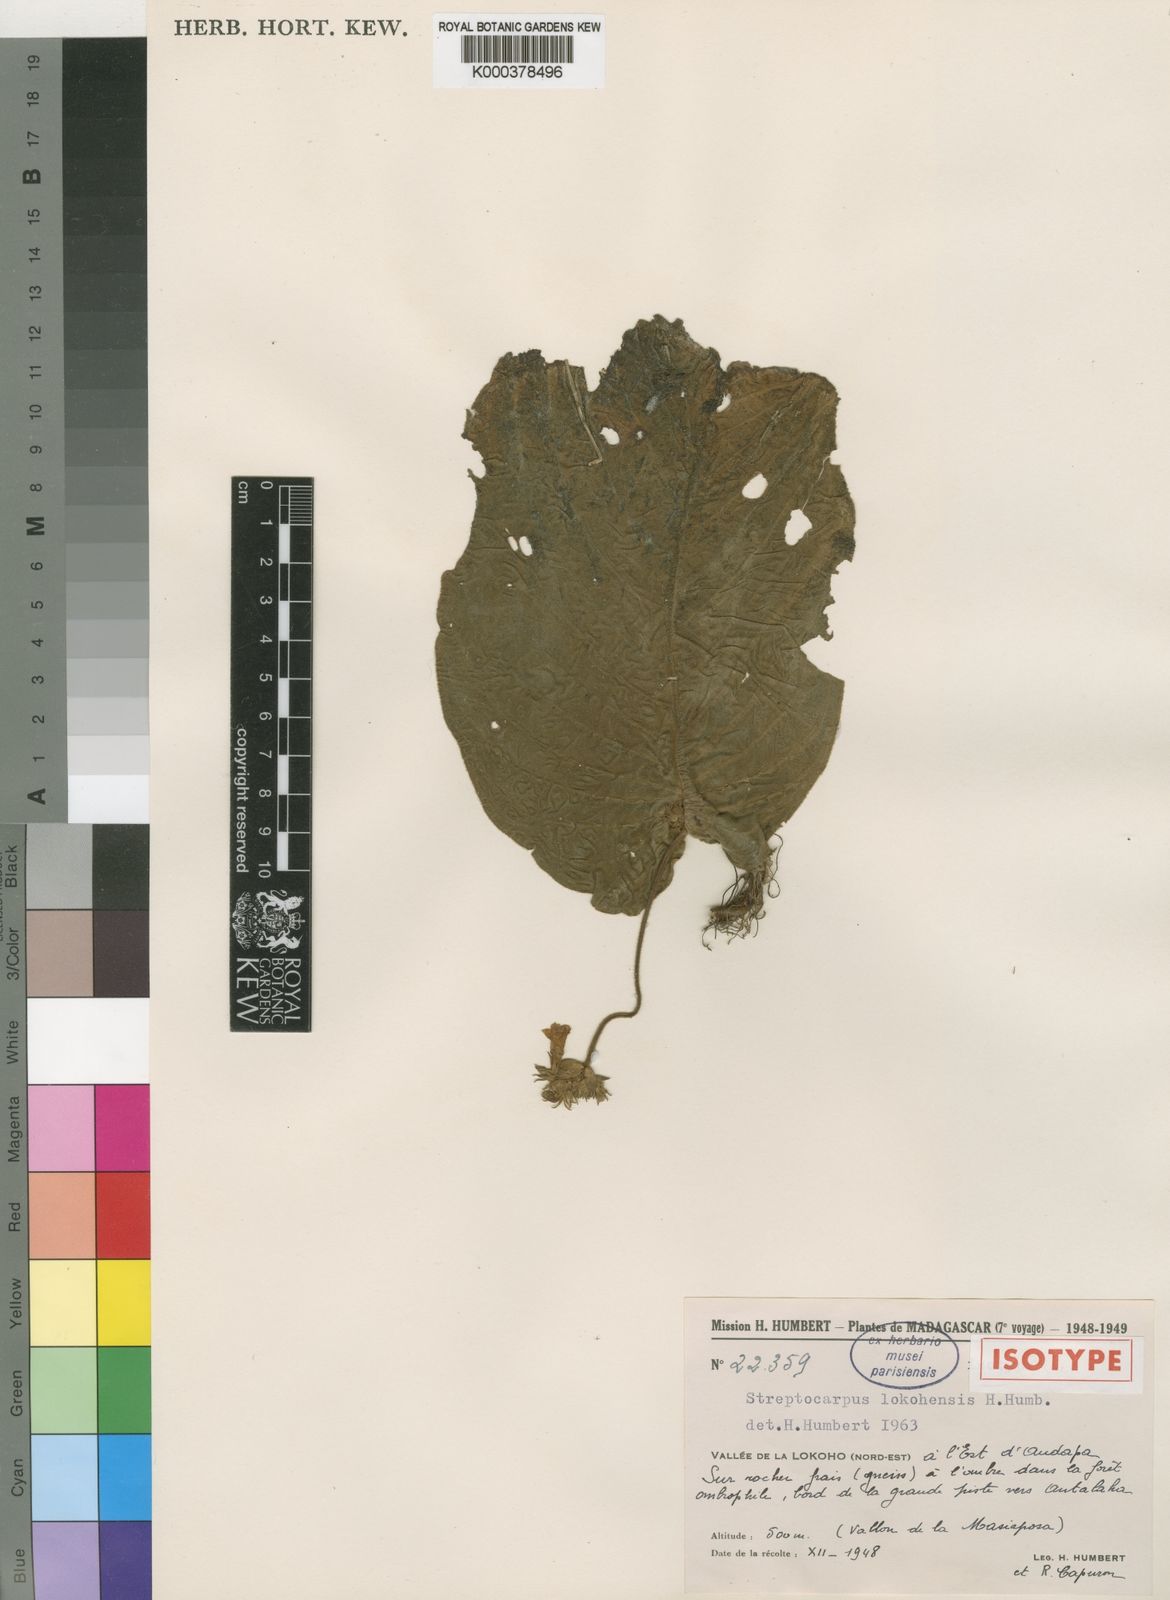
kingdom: Plantae
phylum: Tracheophyta
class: Magnoliopsida
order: Lamiales
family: Gesneriaceae
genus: Streptocarpus
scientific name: Streptocarpus lokohensis
